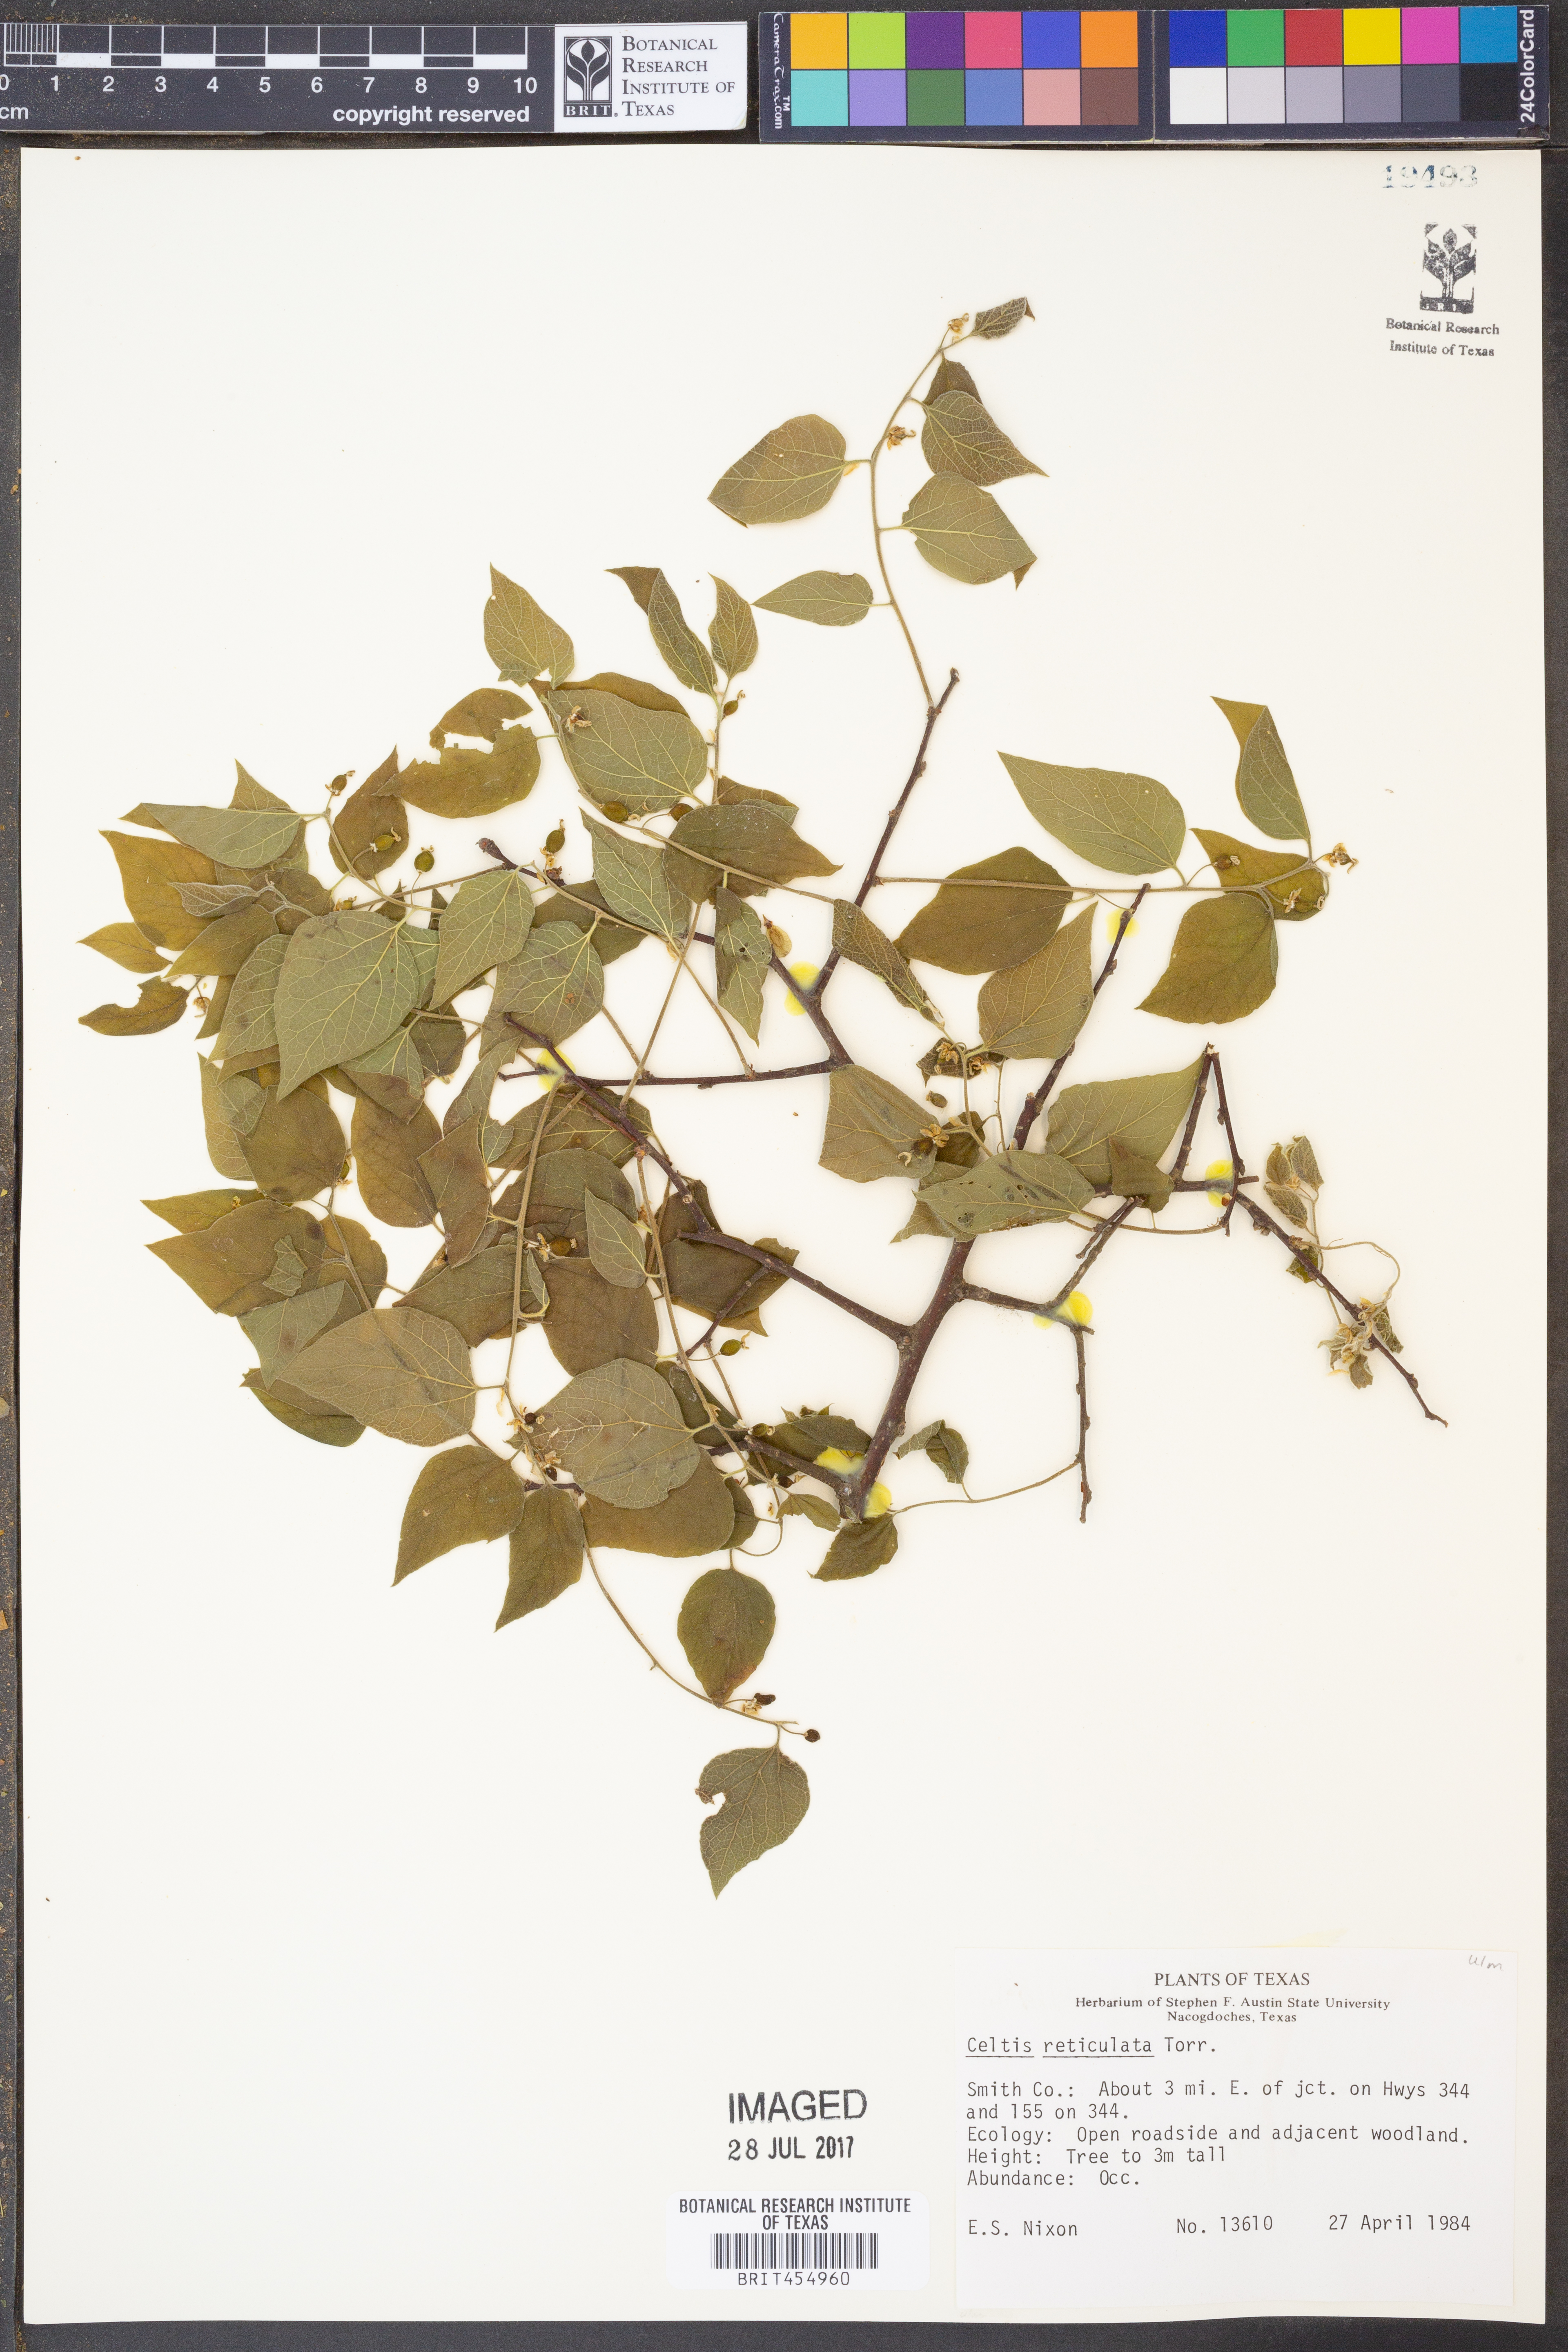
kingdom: Plantae
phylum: Tracheophyta
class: Magnoliopsida
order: Rosales
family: Cannabaceae
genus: Celtis
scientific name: Celtis reticulata
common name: Netleaf hackberry
